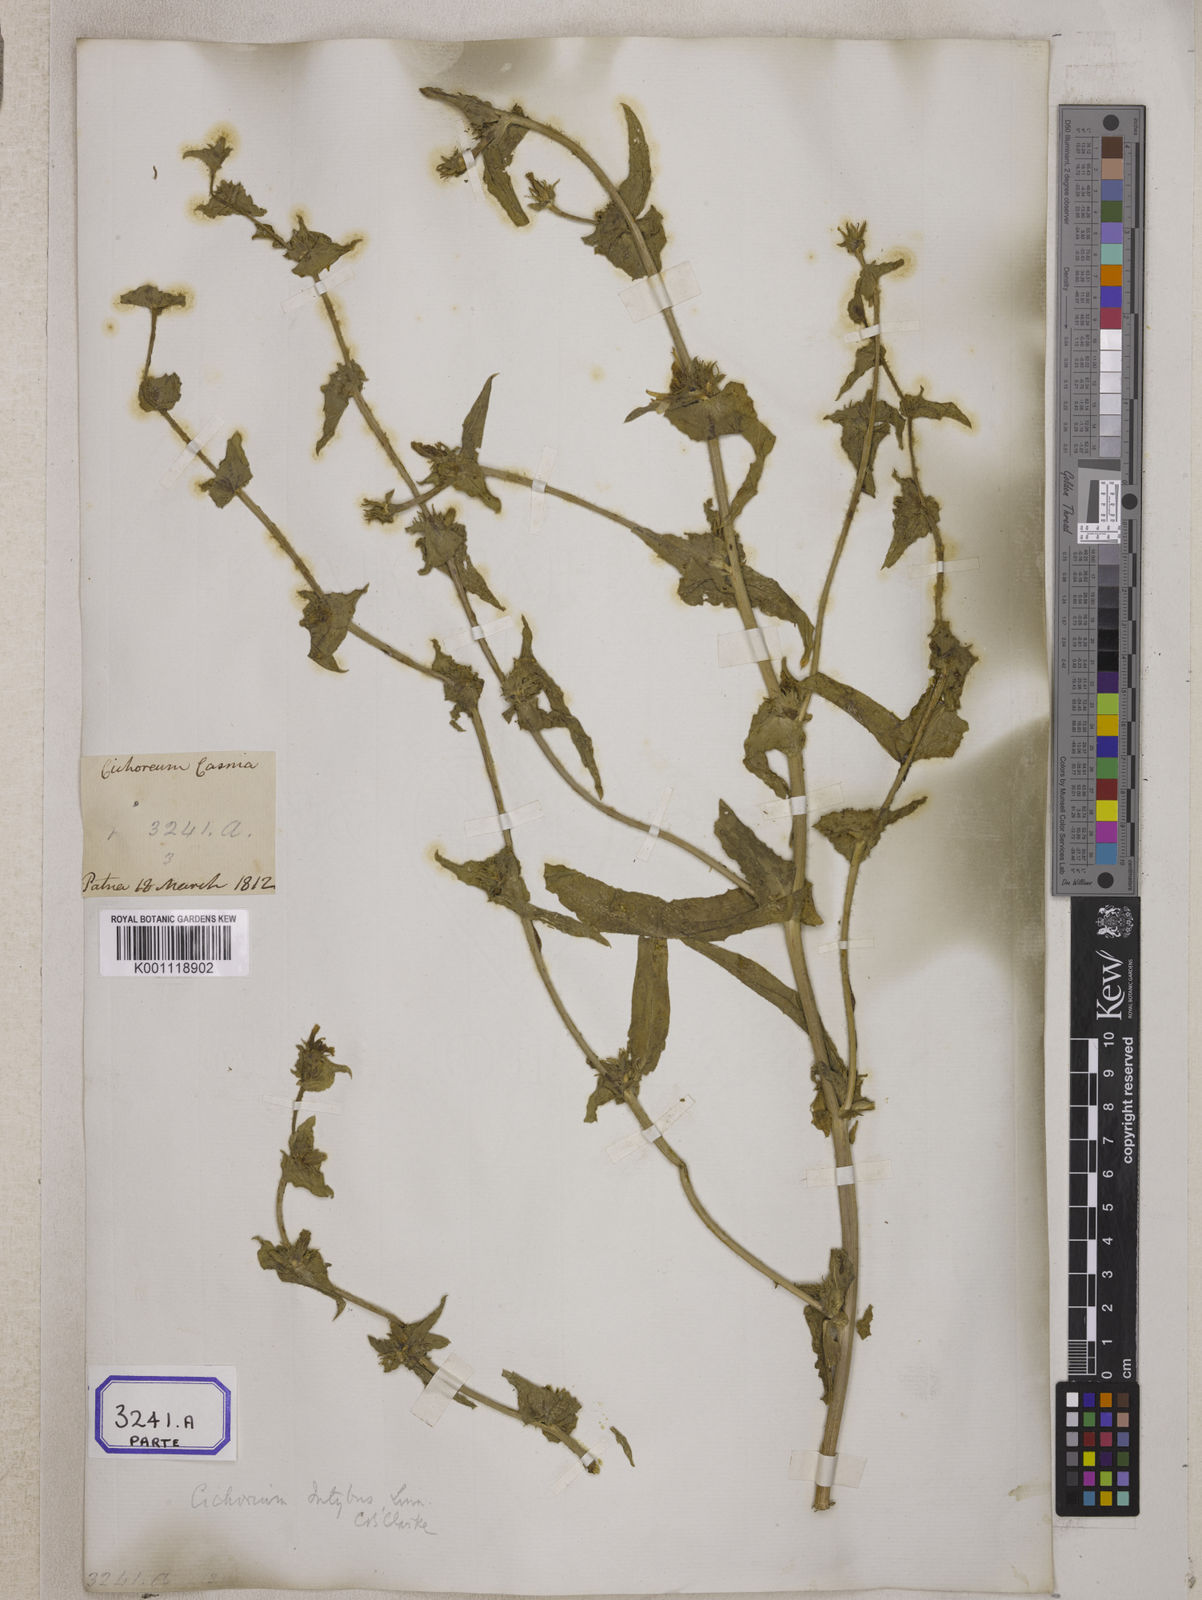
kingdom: Plantae
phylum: Tracheophyta
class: Magnoliopsida
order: Asterales
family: Asteraceae
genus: Cichorium
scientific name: Cichorium intybus
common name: Chicory
